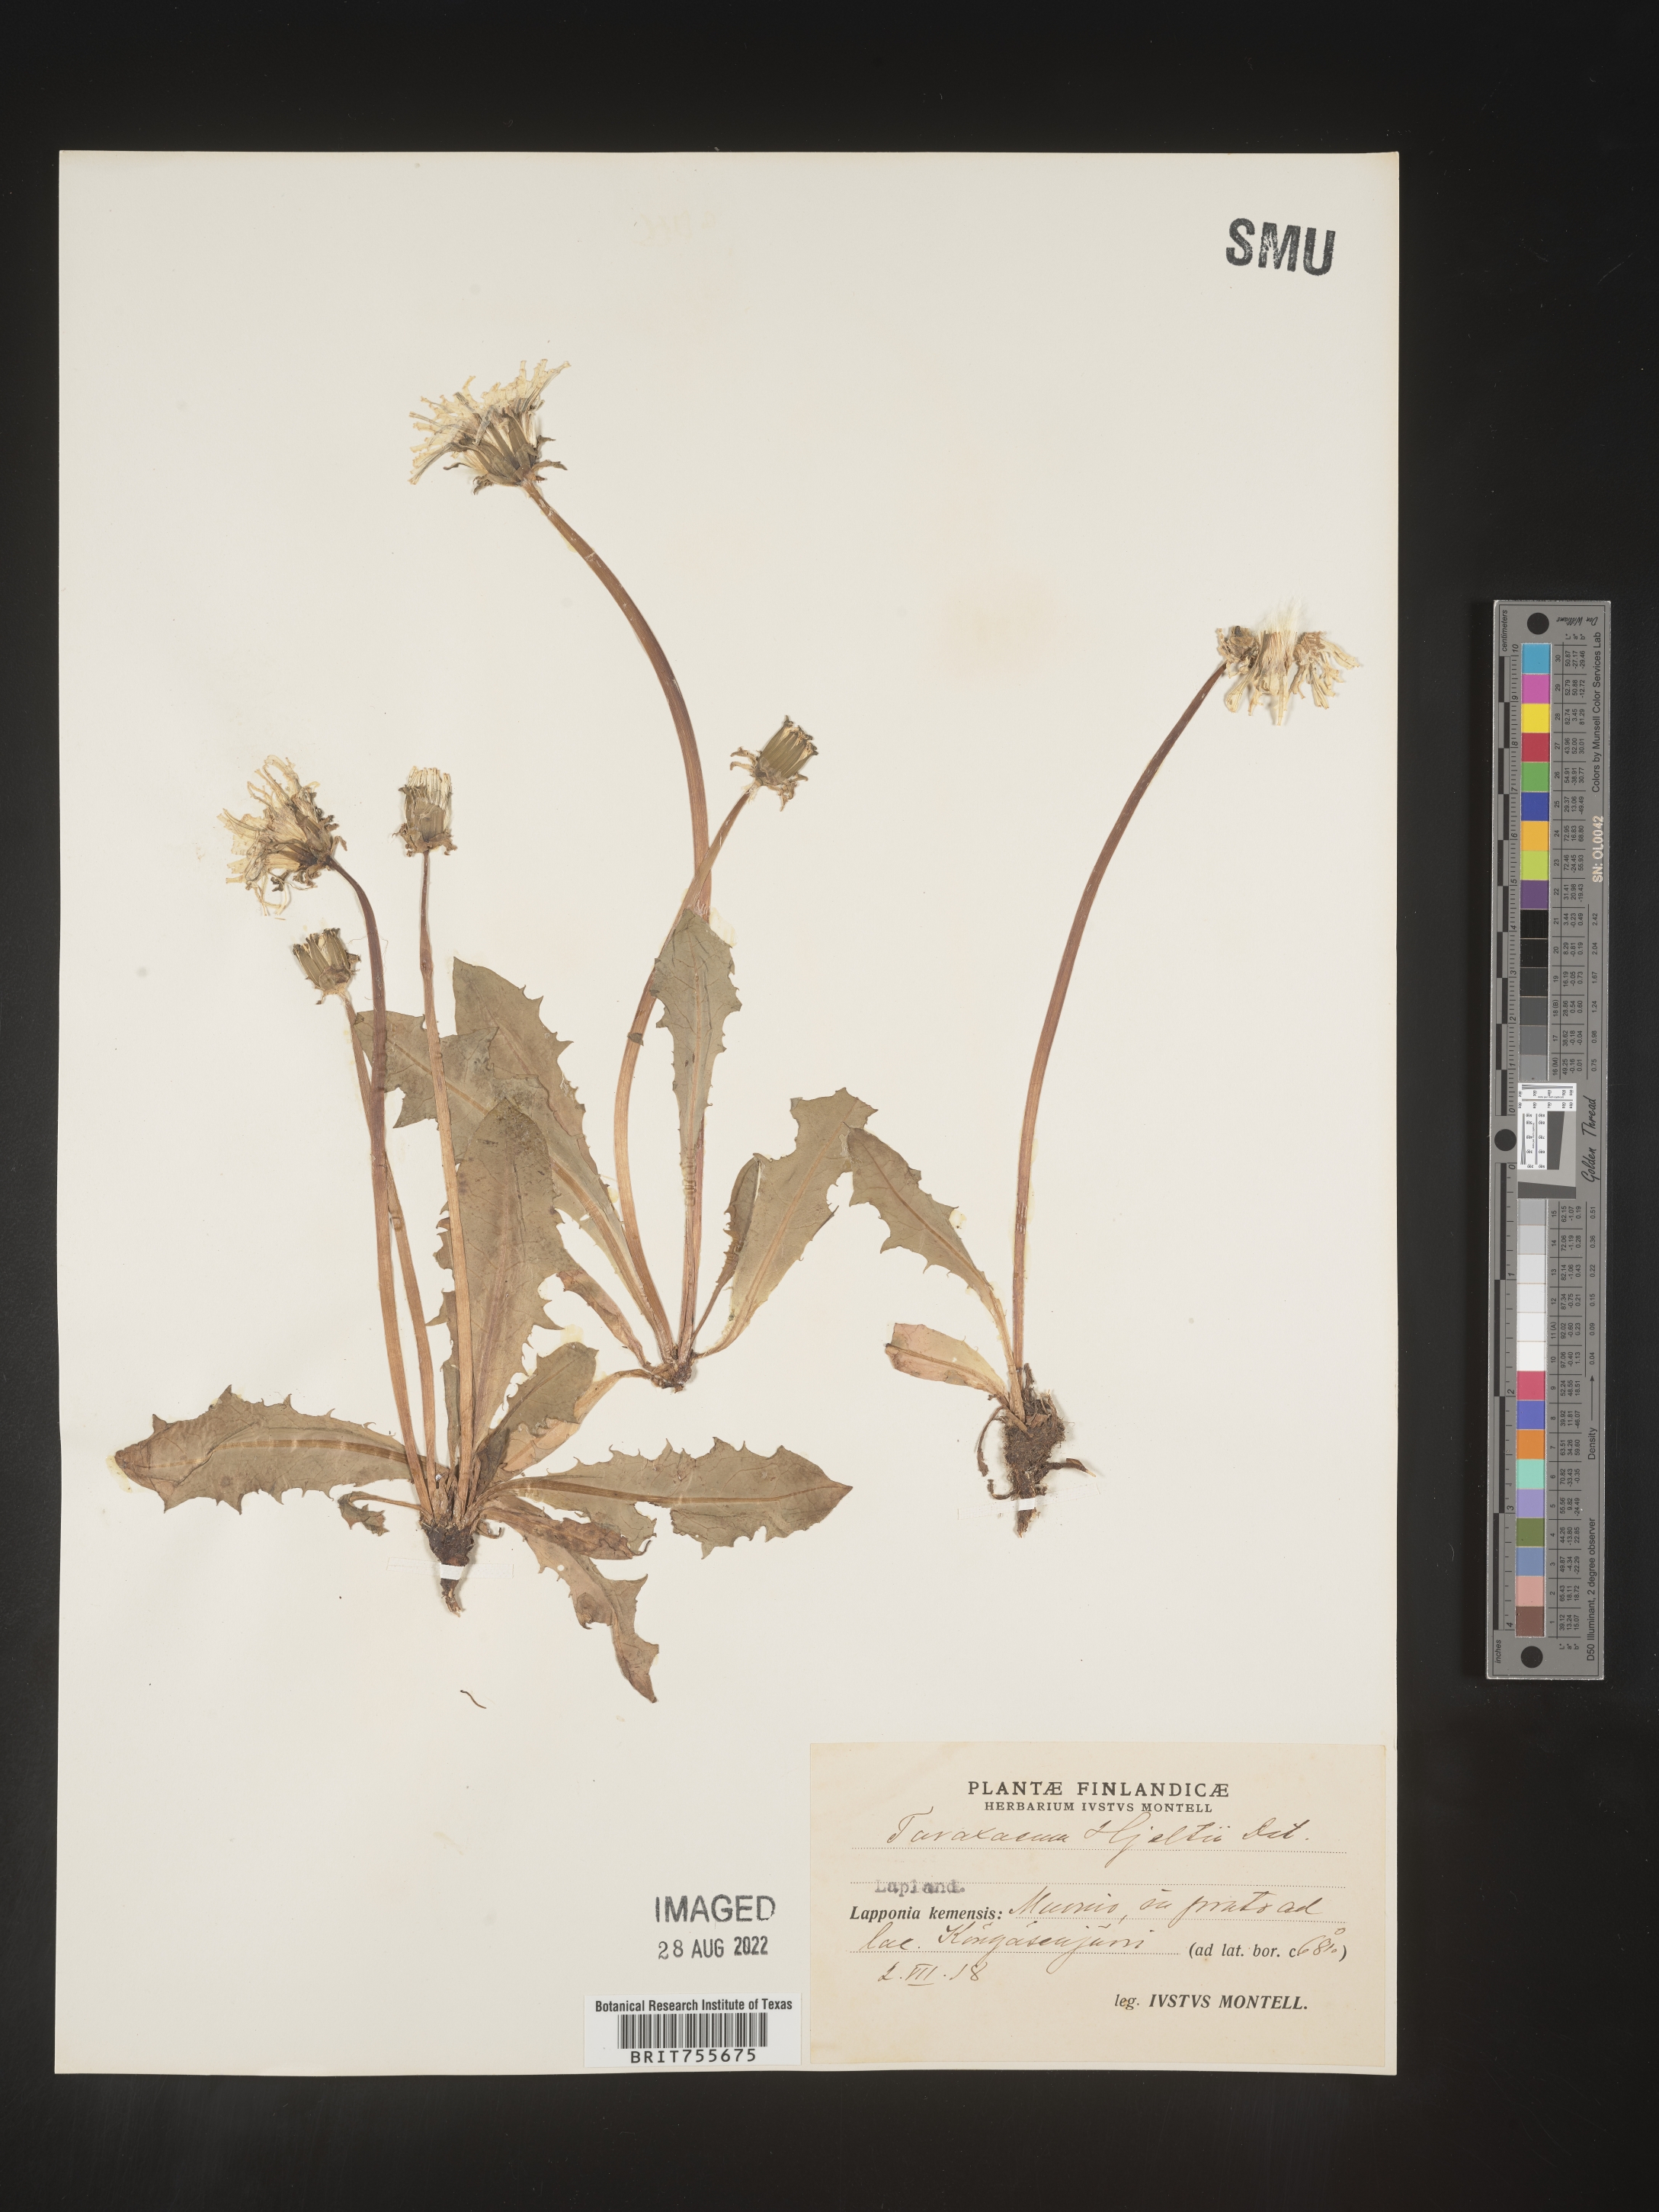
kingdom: Plantae
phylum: Tracheophyta
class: Magnoliopsida
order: Asterales
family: Asteraceae
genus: Taraxacum
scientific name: Taraxacum
